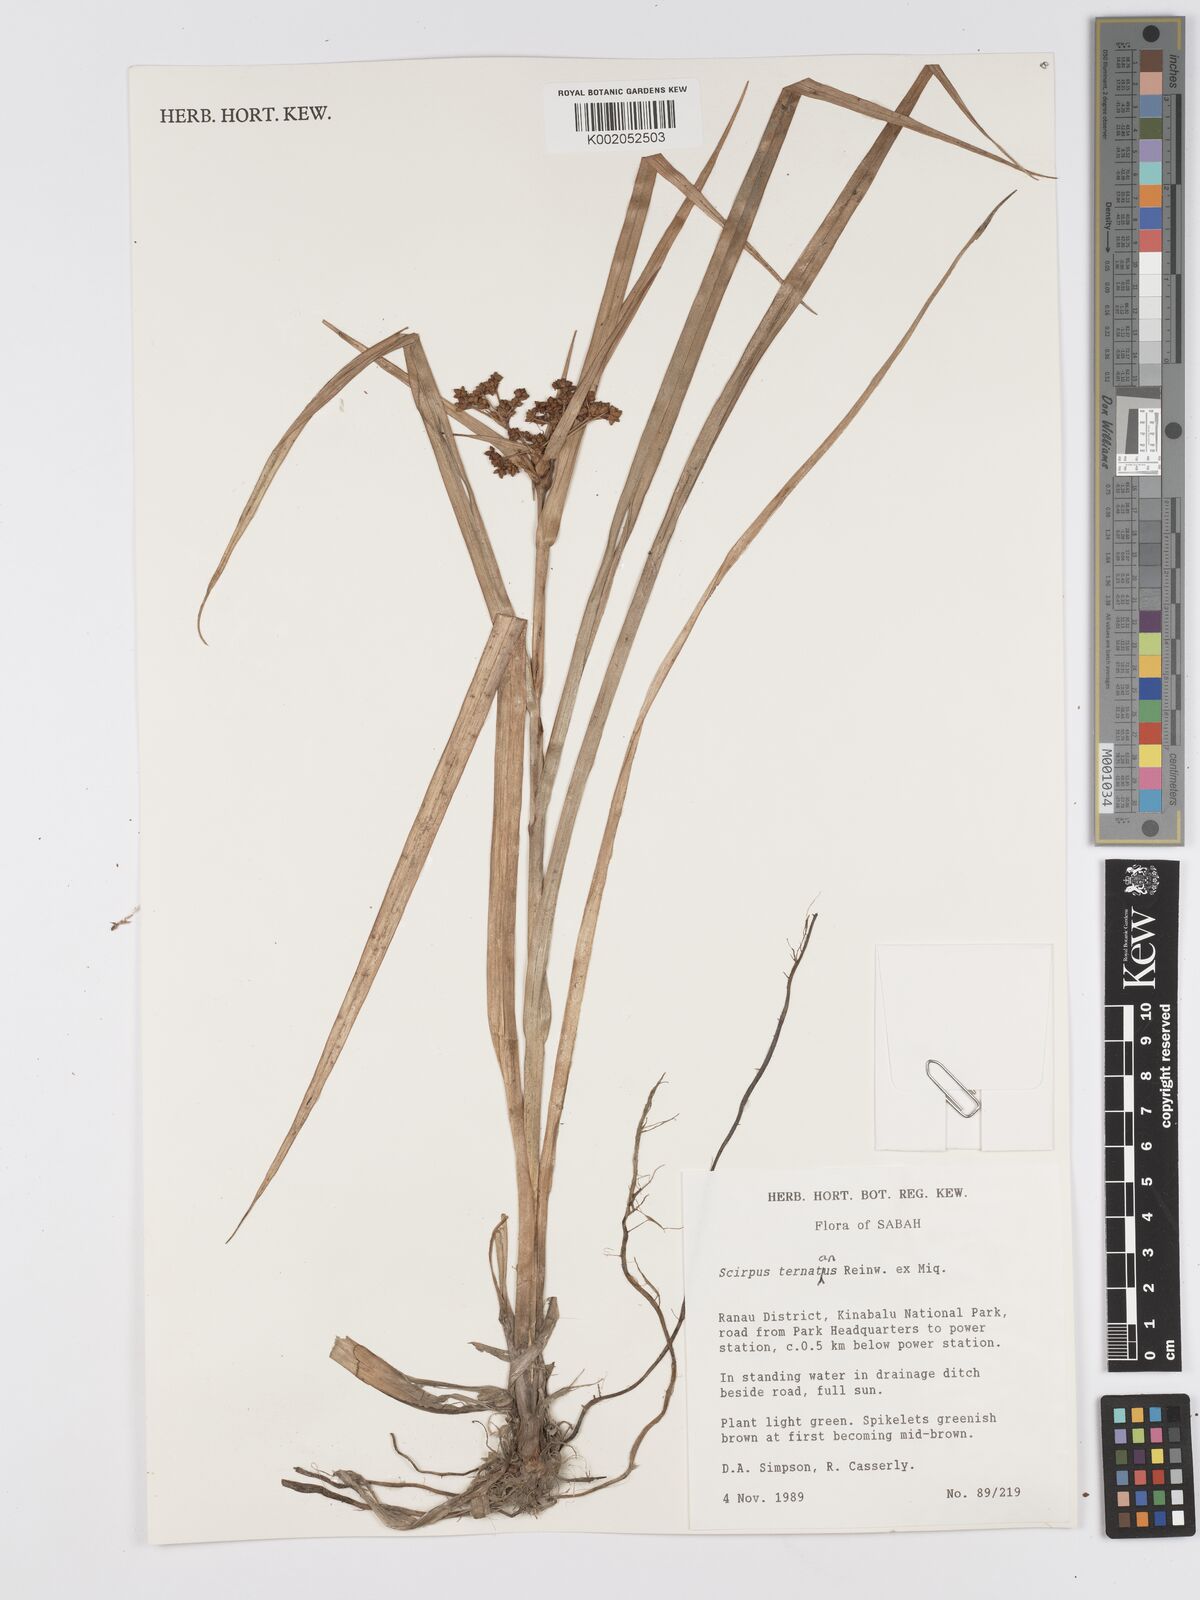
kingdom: Plantae
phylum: Tracheophyta
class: Liliopsida
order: Poales
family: Cyperaceae
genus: Scirpus
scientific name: Scirpus ternatanus
